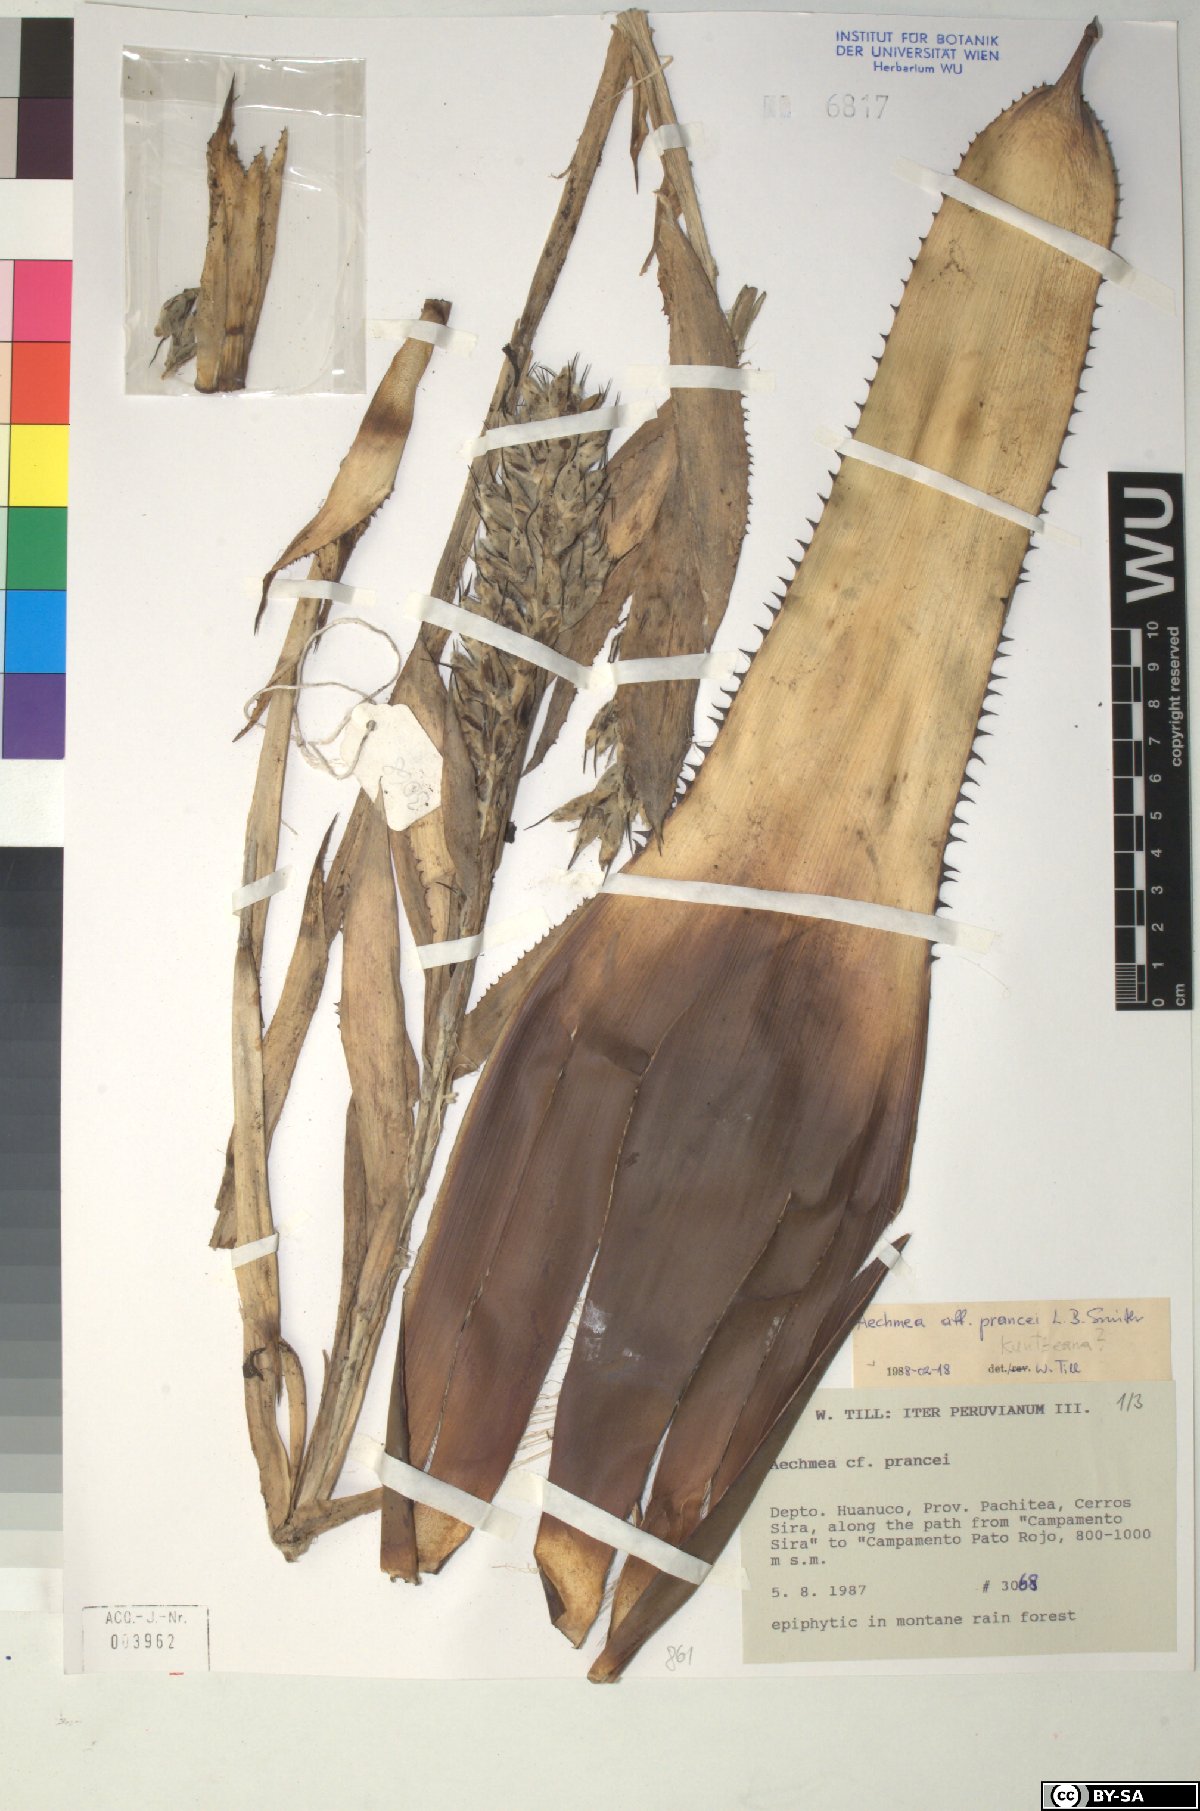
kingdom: Plantae
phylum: Tracheophyta
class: Liliopsida
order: Poales
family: Bromeliaceae
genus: Aechmea
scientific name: Aechmea prancei
